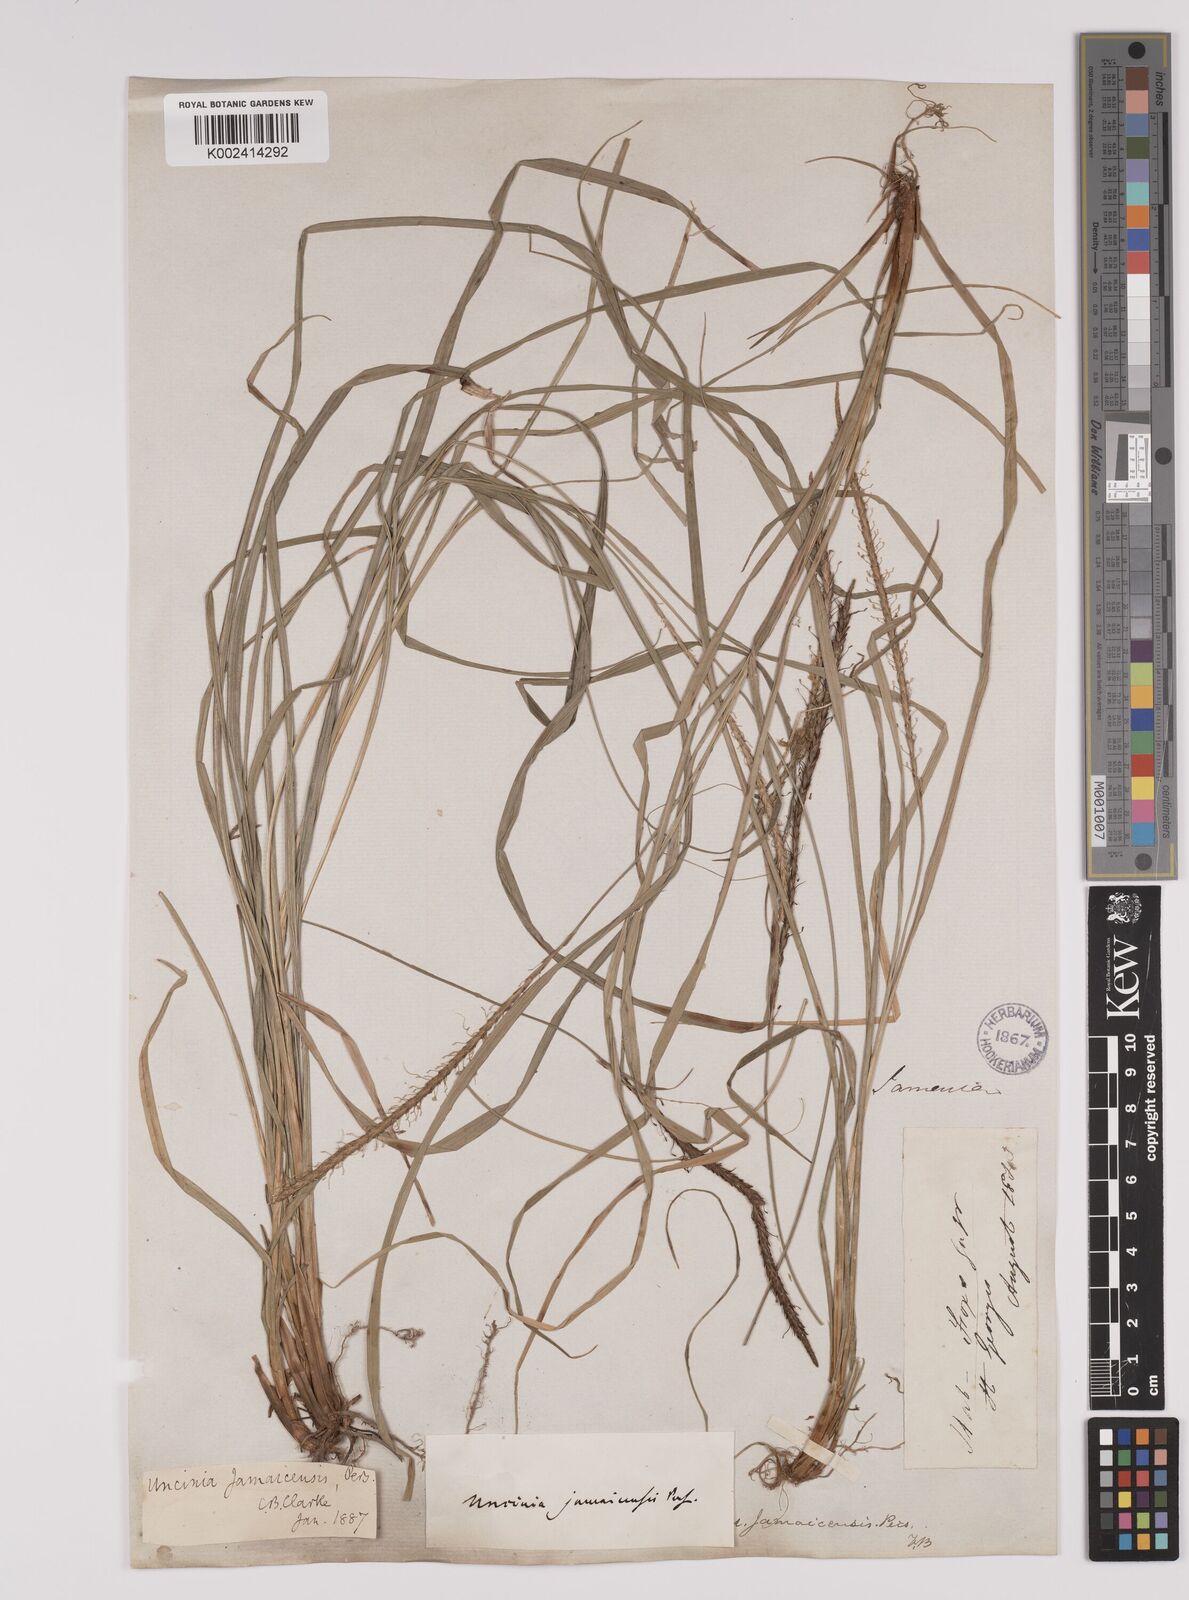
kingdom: Plantae
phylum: Tracheophyta
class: Liliopsida
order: Poales
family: Cyperaceae
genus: Carex
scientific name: Carex hamata
